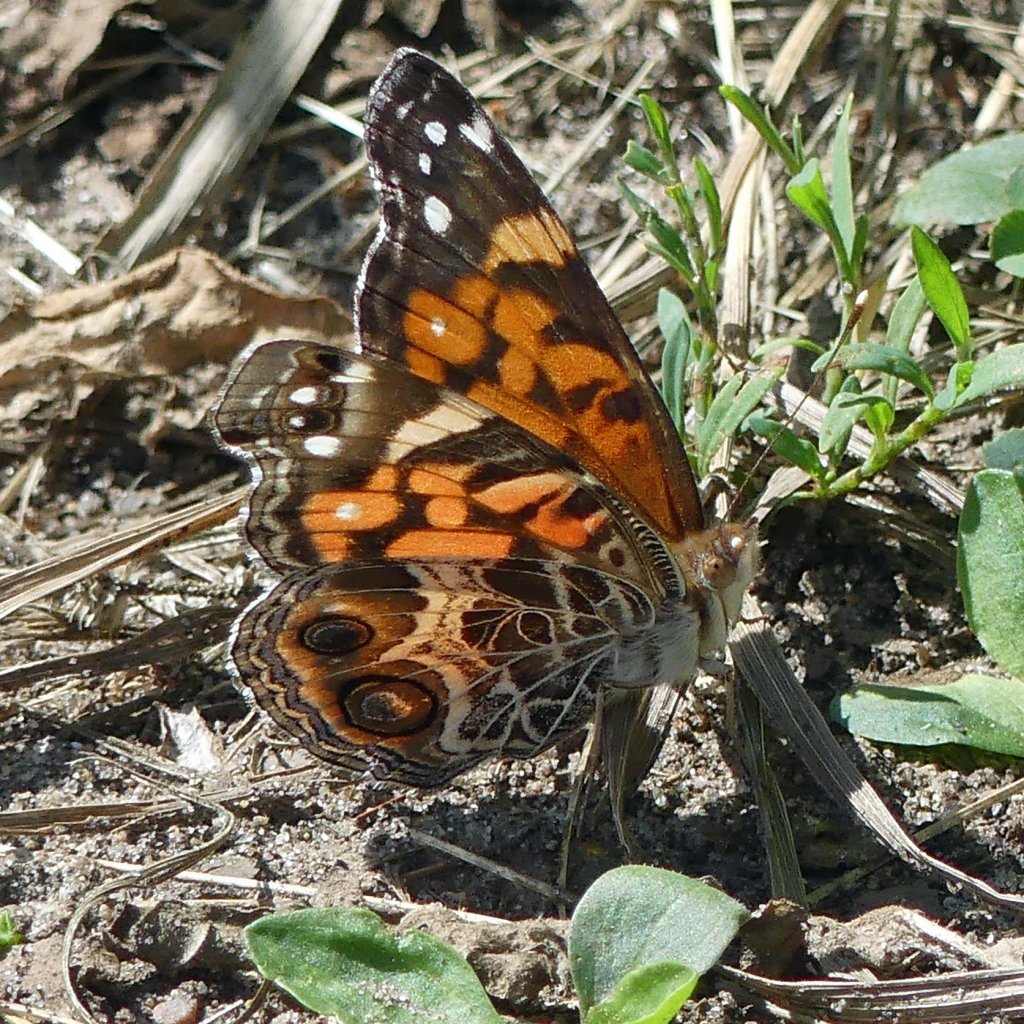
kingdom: Animalia
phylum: Arthropoda
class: Insecta
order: Lepidoptera
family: Nymphalidae
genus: Vanessa
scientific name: Vanessa virginiensis
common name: American Lady
